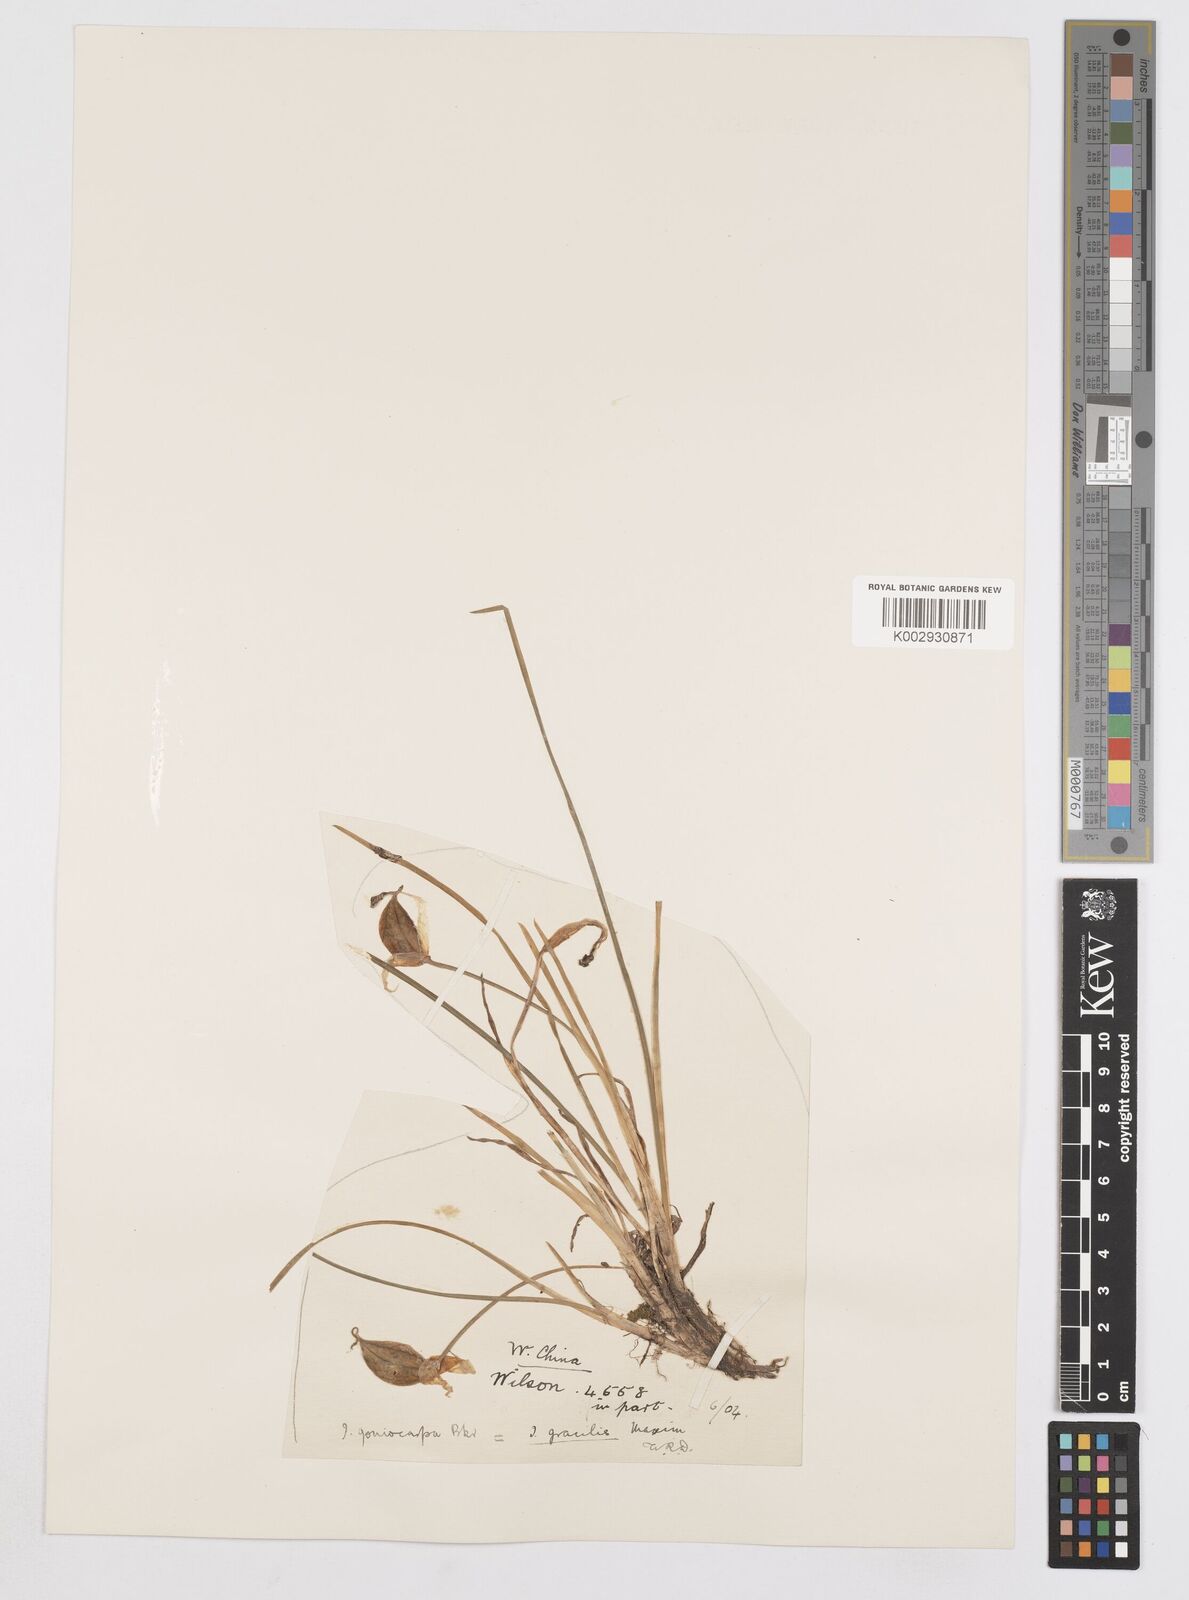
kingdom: Plantae
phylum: Tracheophyta
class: Liliopsida
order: Asparagales
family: Iridaceae
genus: Iris
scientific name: Iris goniocarpa
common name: Angular-fruit iris
